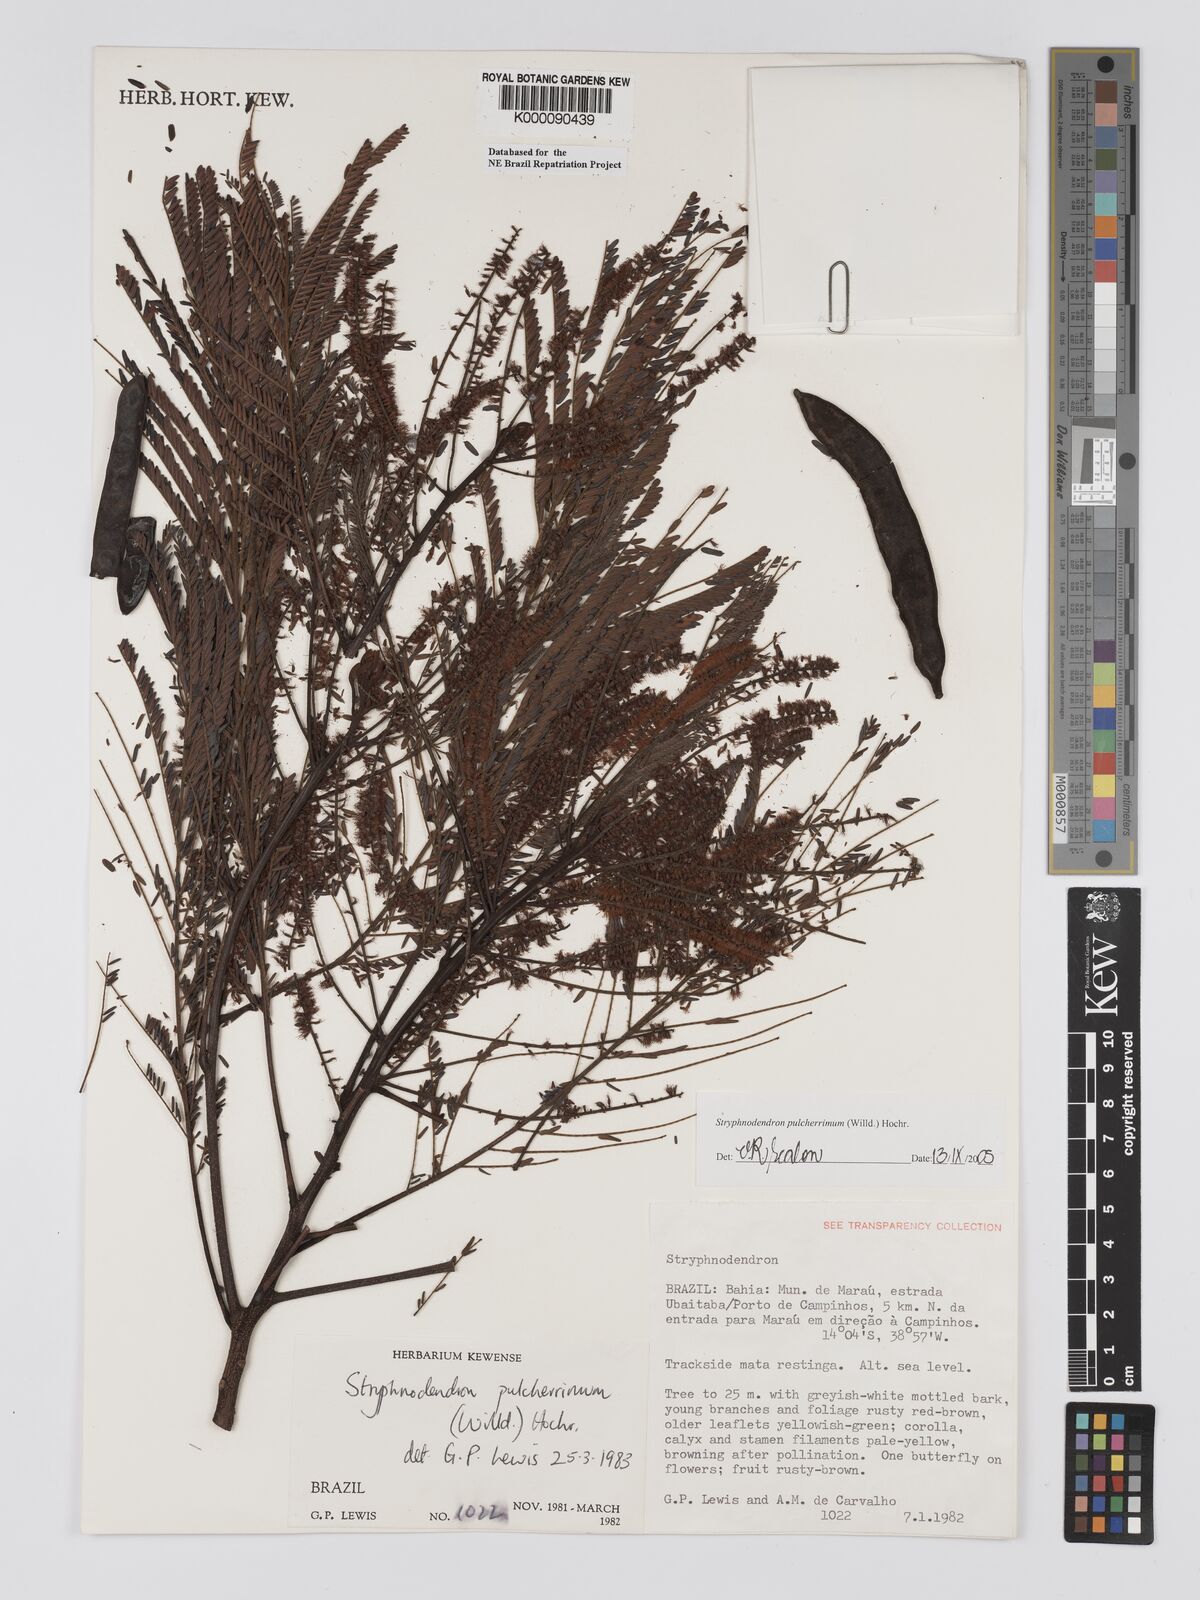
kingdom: Plantae
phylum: Tracheophyta
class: Magnoliopsida
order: Fabales
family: Fabaceae
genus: Stryphnodendron
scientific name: Stryphnodendron pulcherrimum
